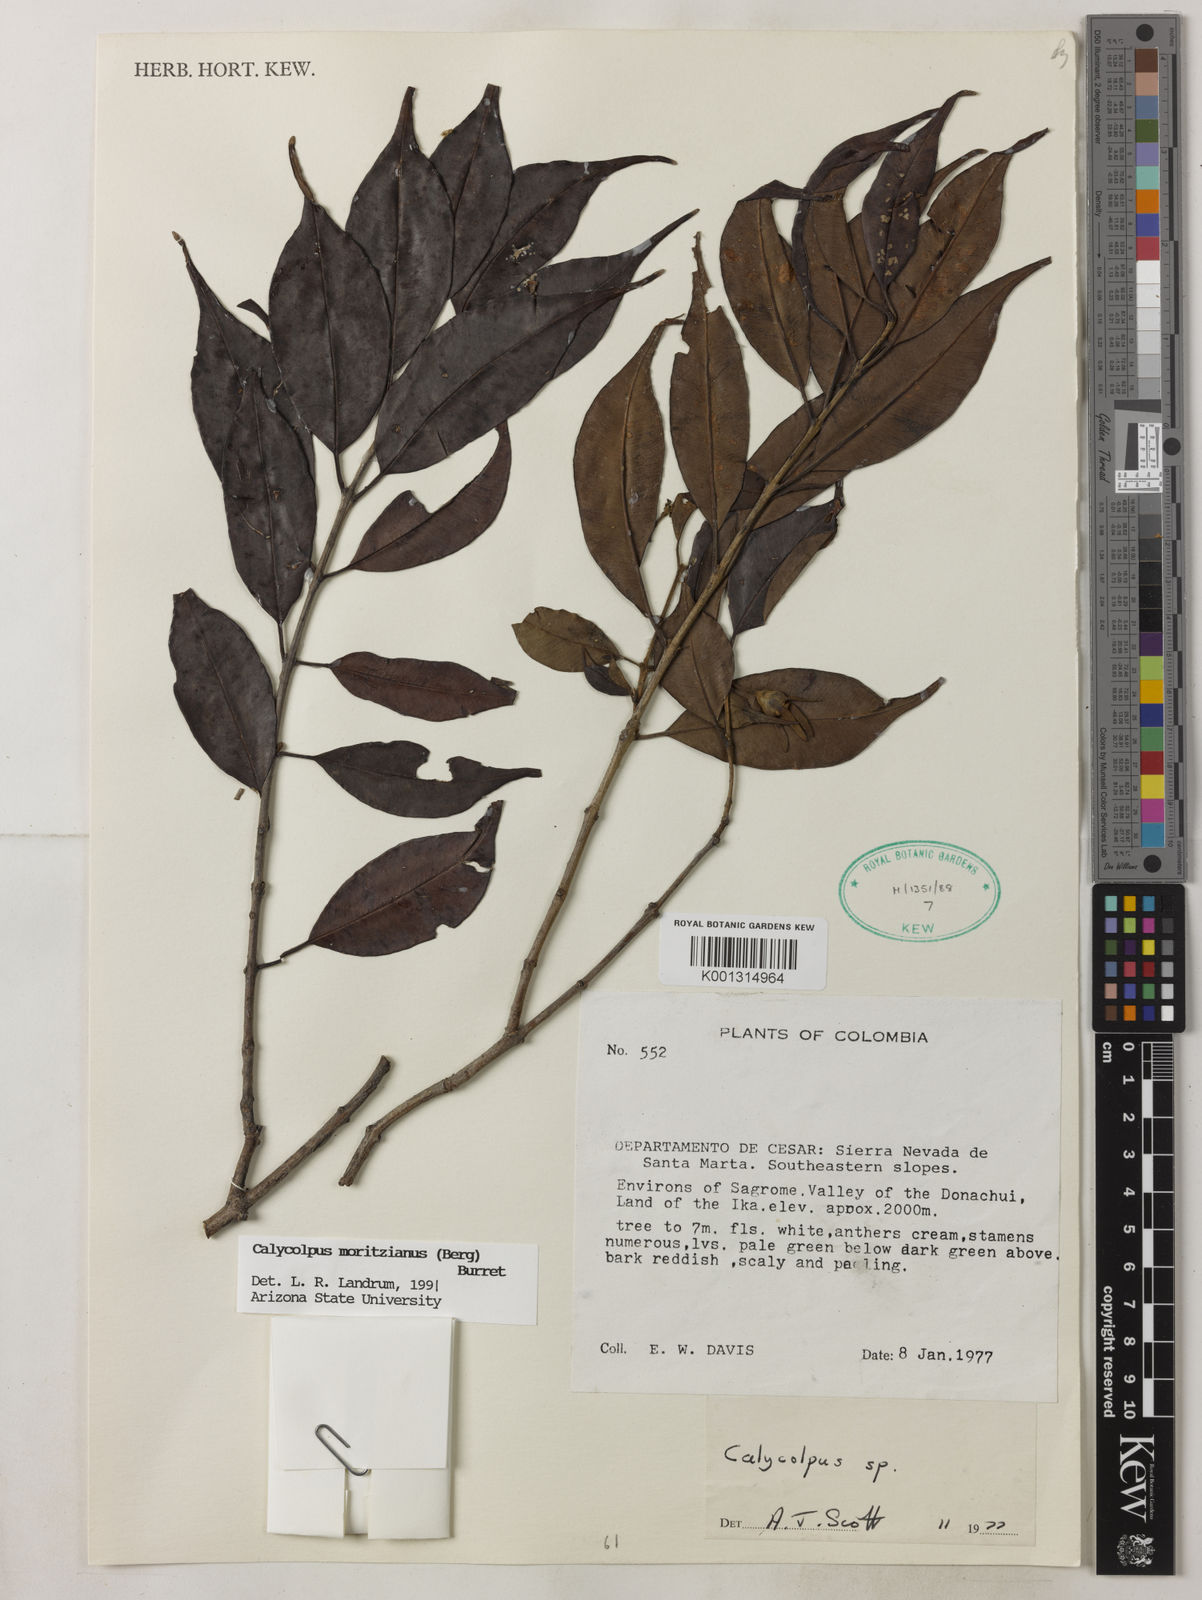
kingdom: Plantae
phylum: Tracheophyta
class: Magnoliopsida
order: Myrtales
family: Myrtaceae
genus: Calycolpus
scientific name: Calycolpus moritzianus
